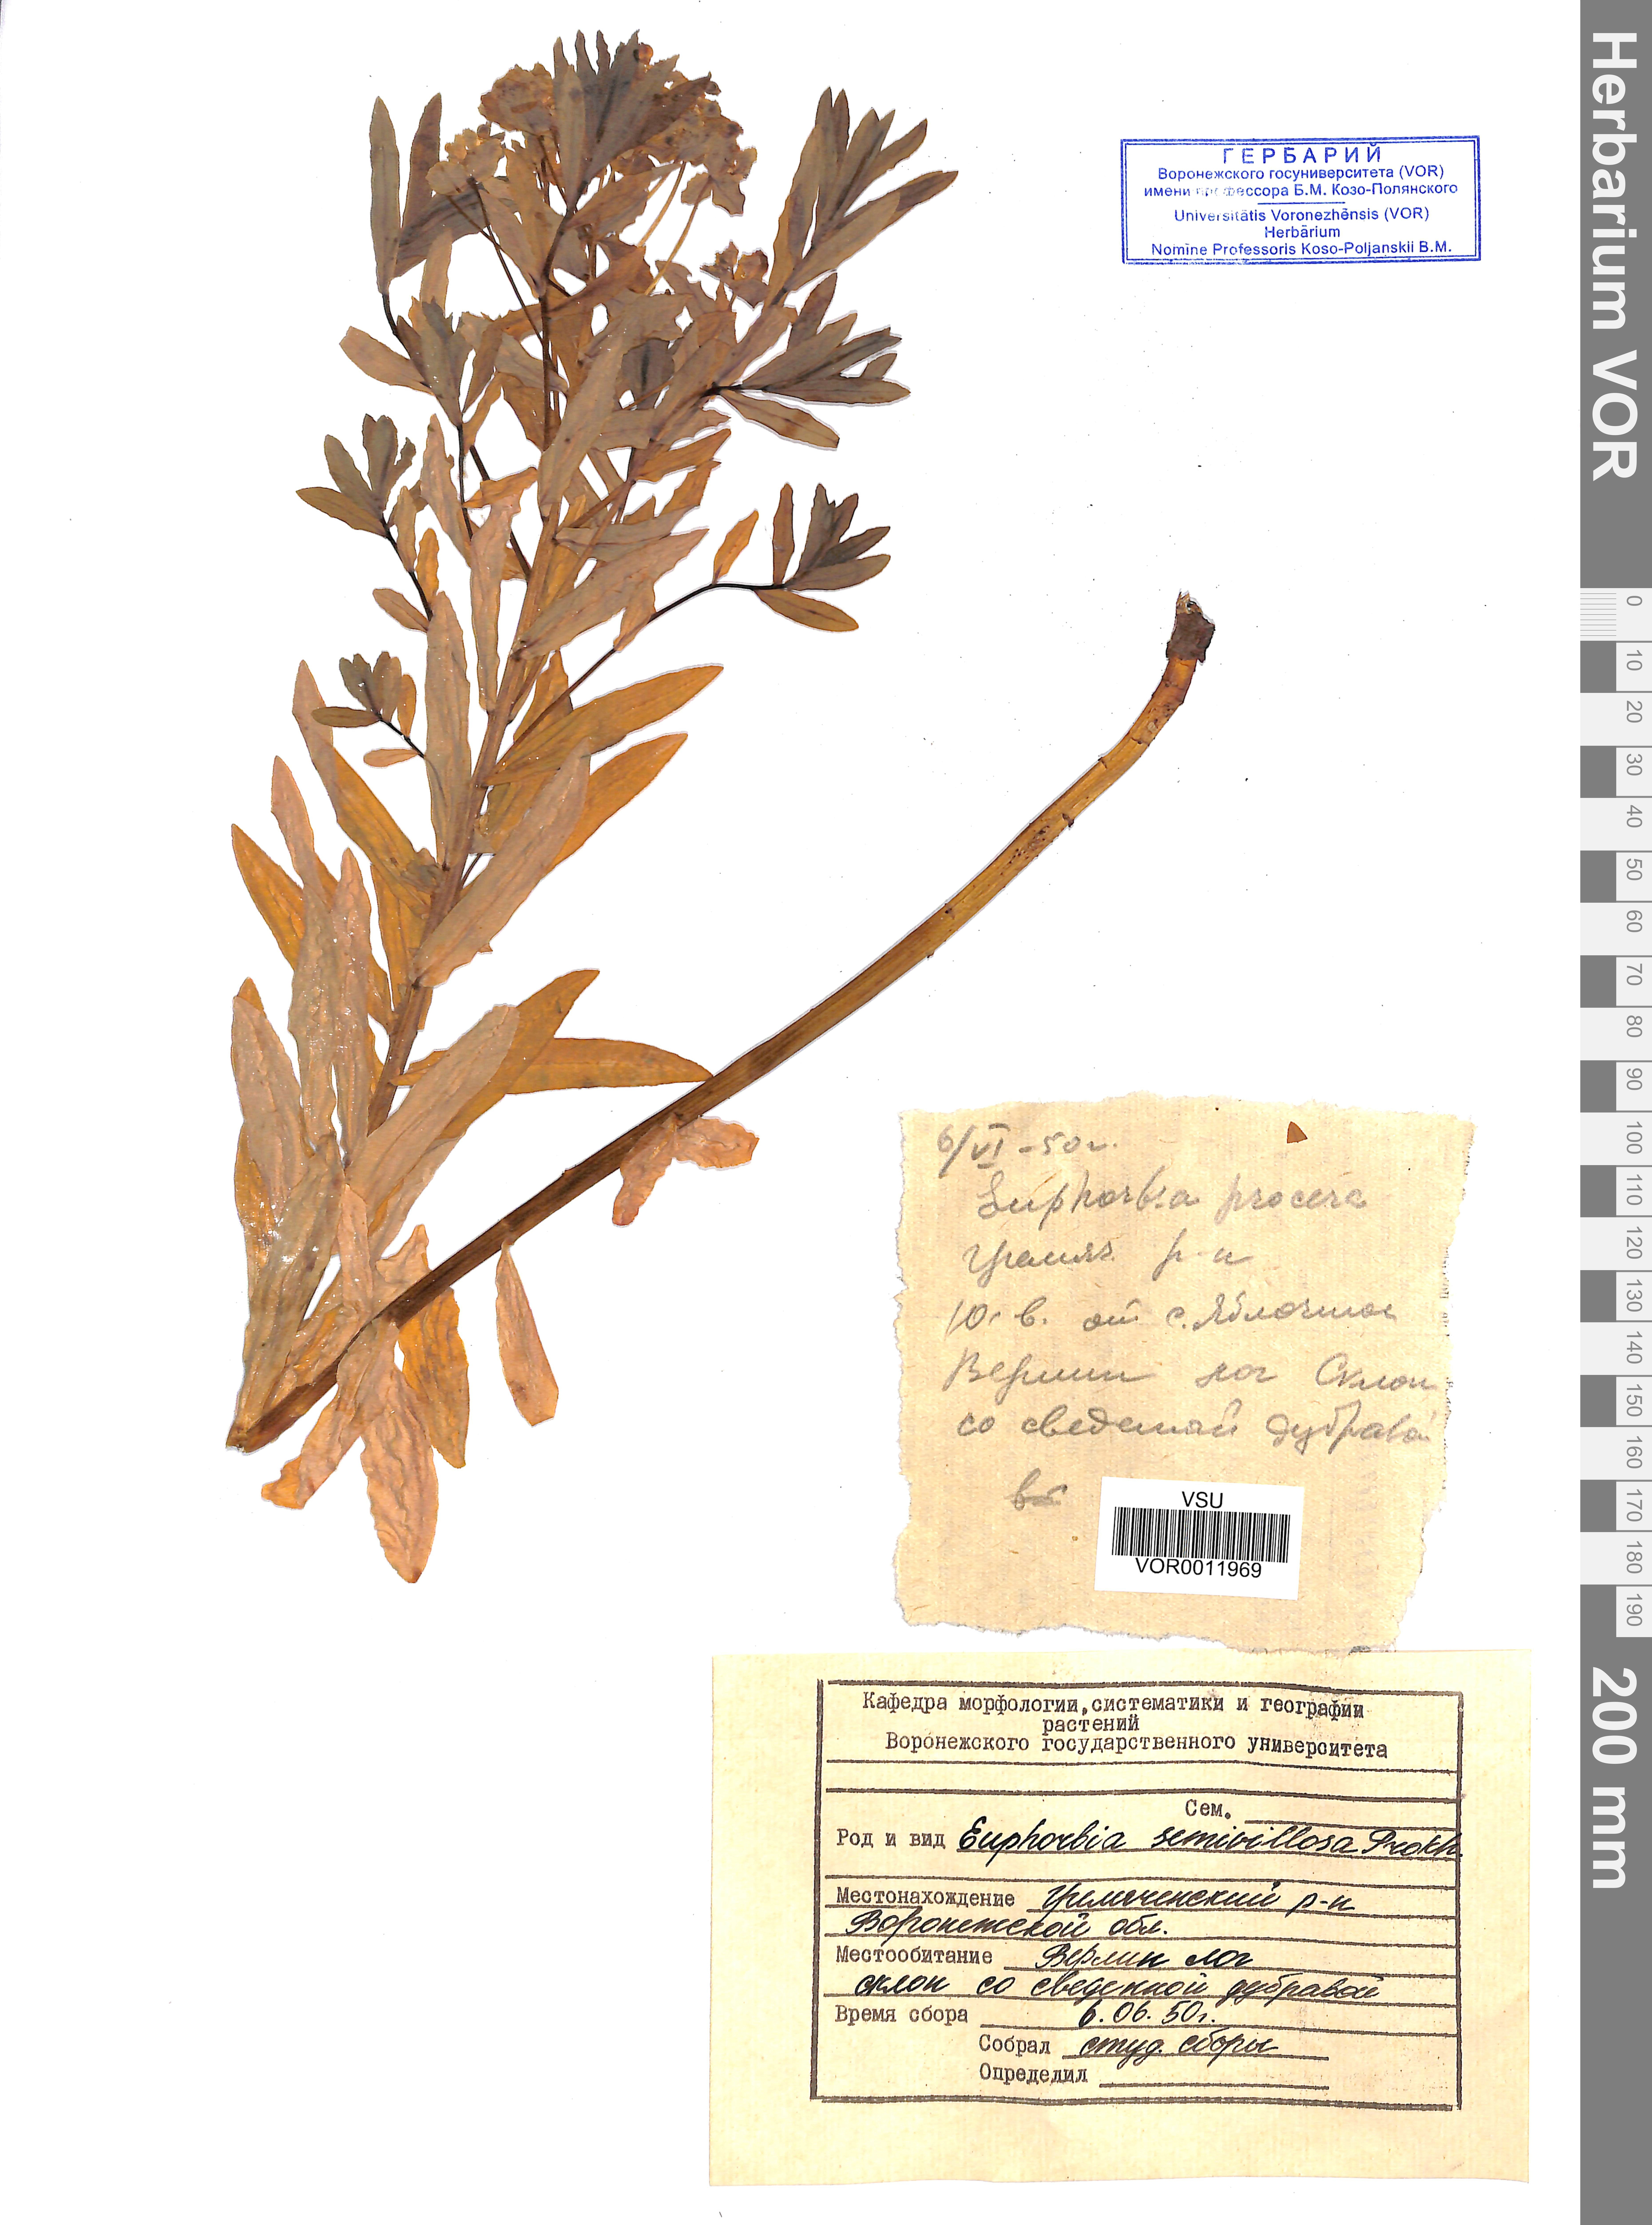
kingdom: Plantae
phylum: Tracheophyta
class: Magnoliopsida
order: Malpighiales
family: Euphorbiaceae
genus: Euphorbia
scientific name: Euphorbia semivillosa
